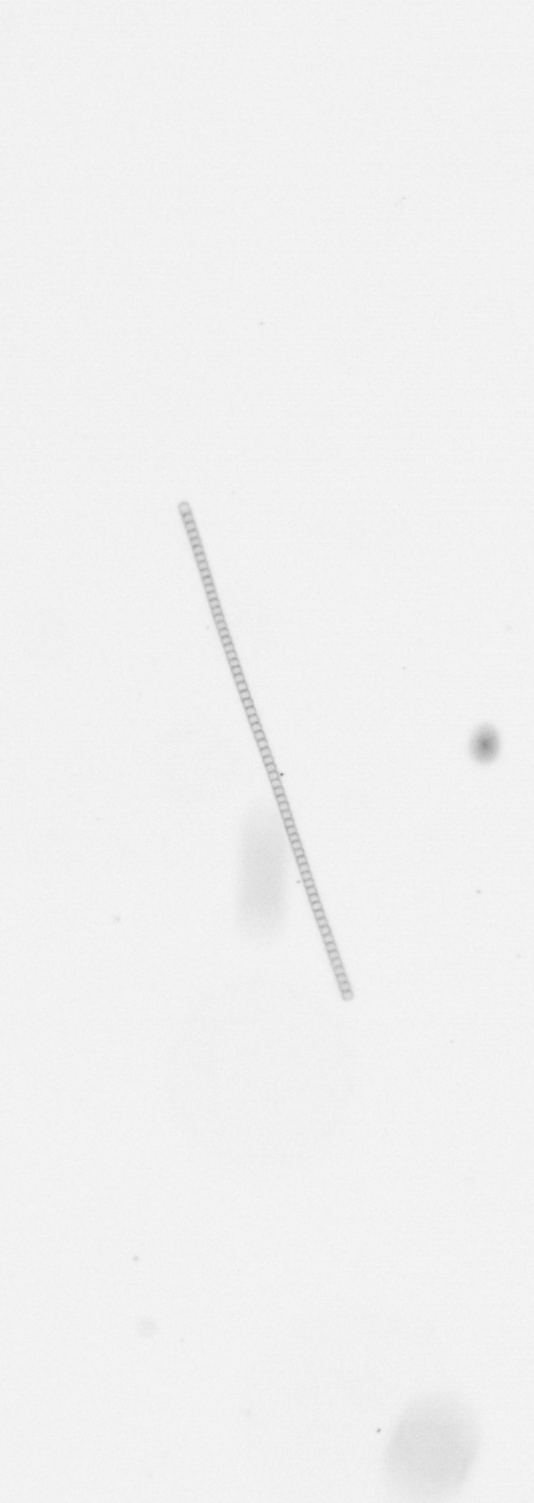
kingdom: Chromista
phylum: Ochrophyta
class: Bacillariophyceae
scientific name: Bacillariophyceae
